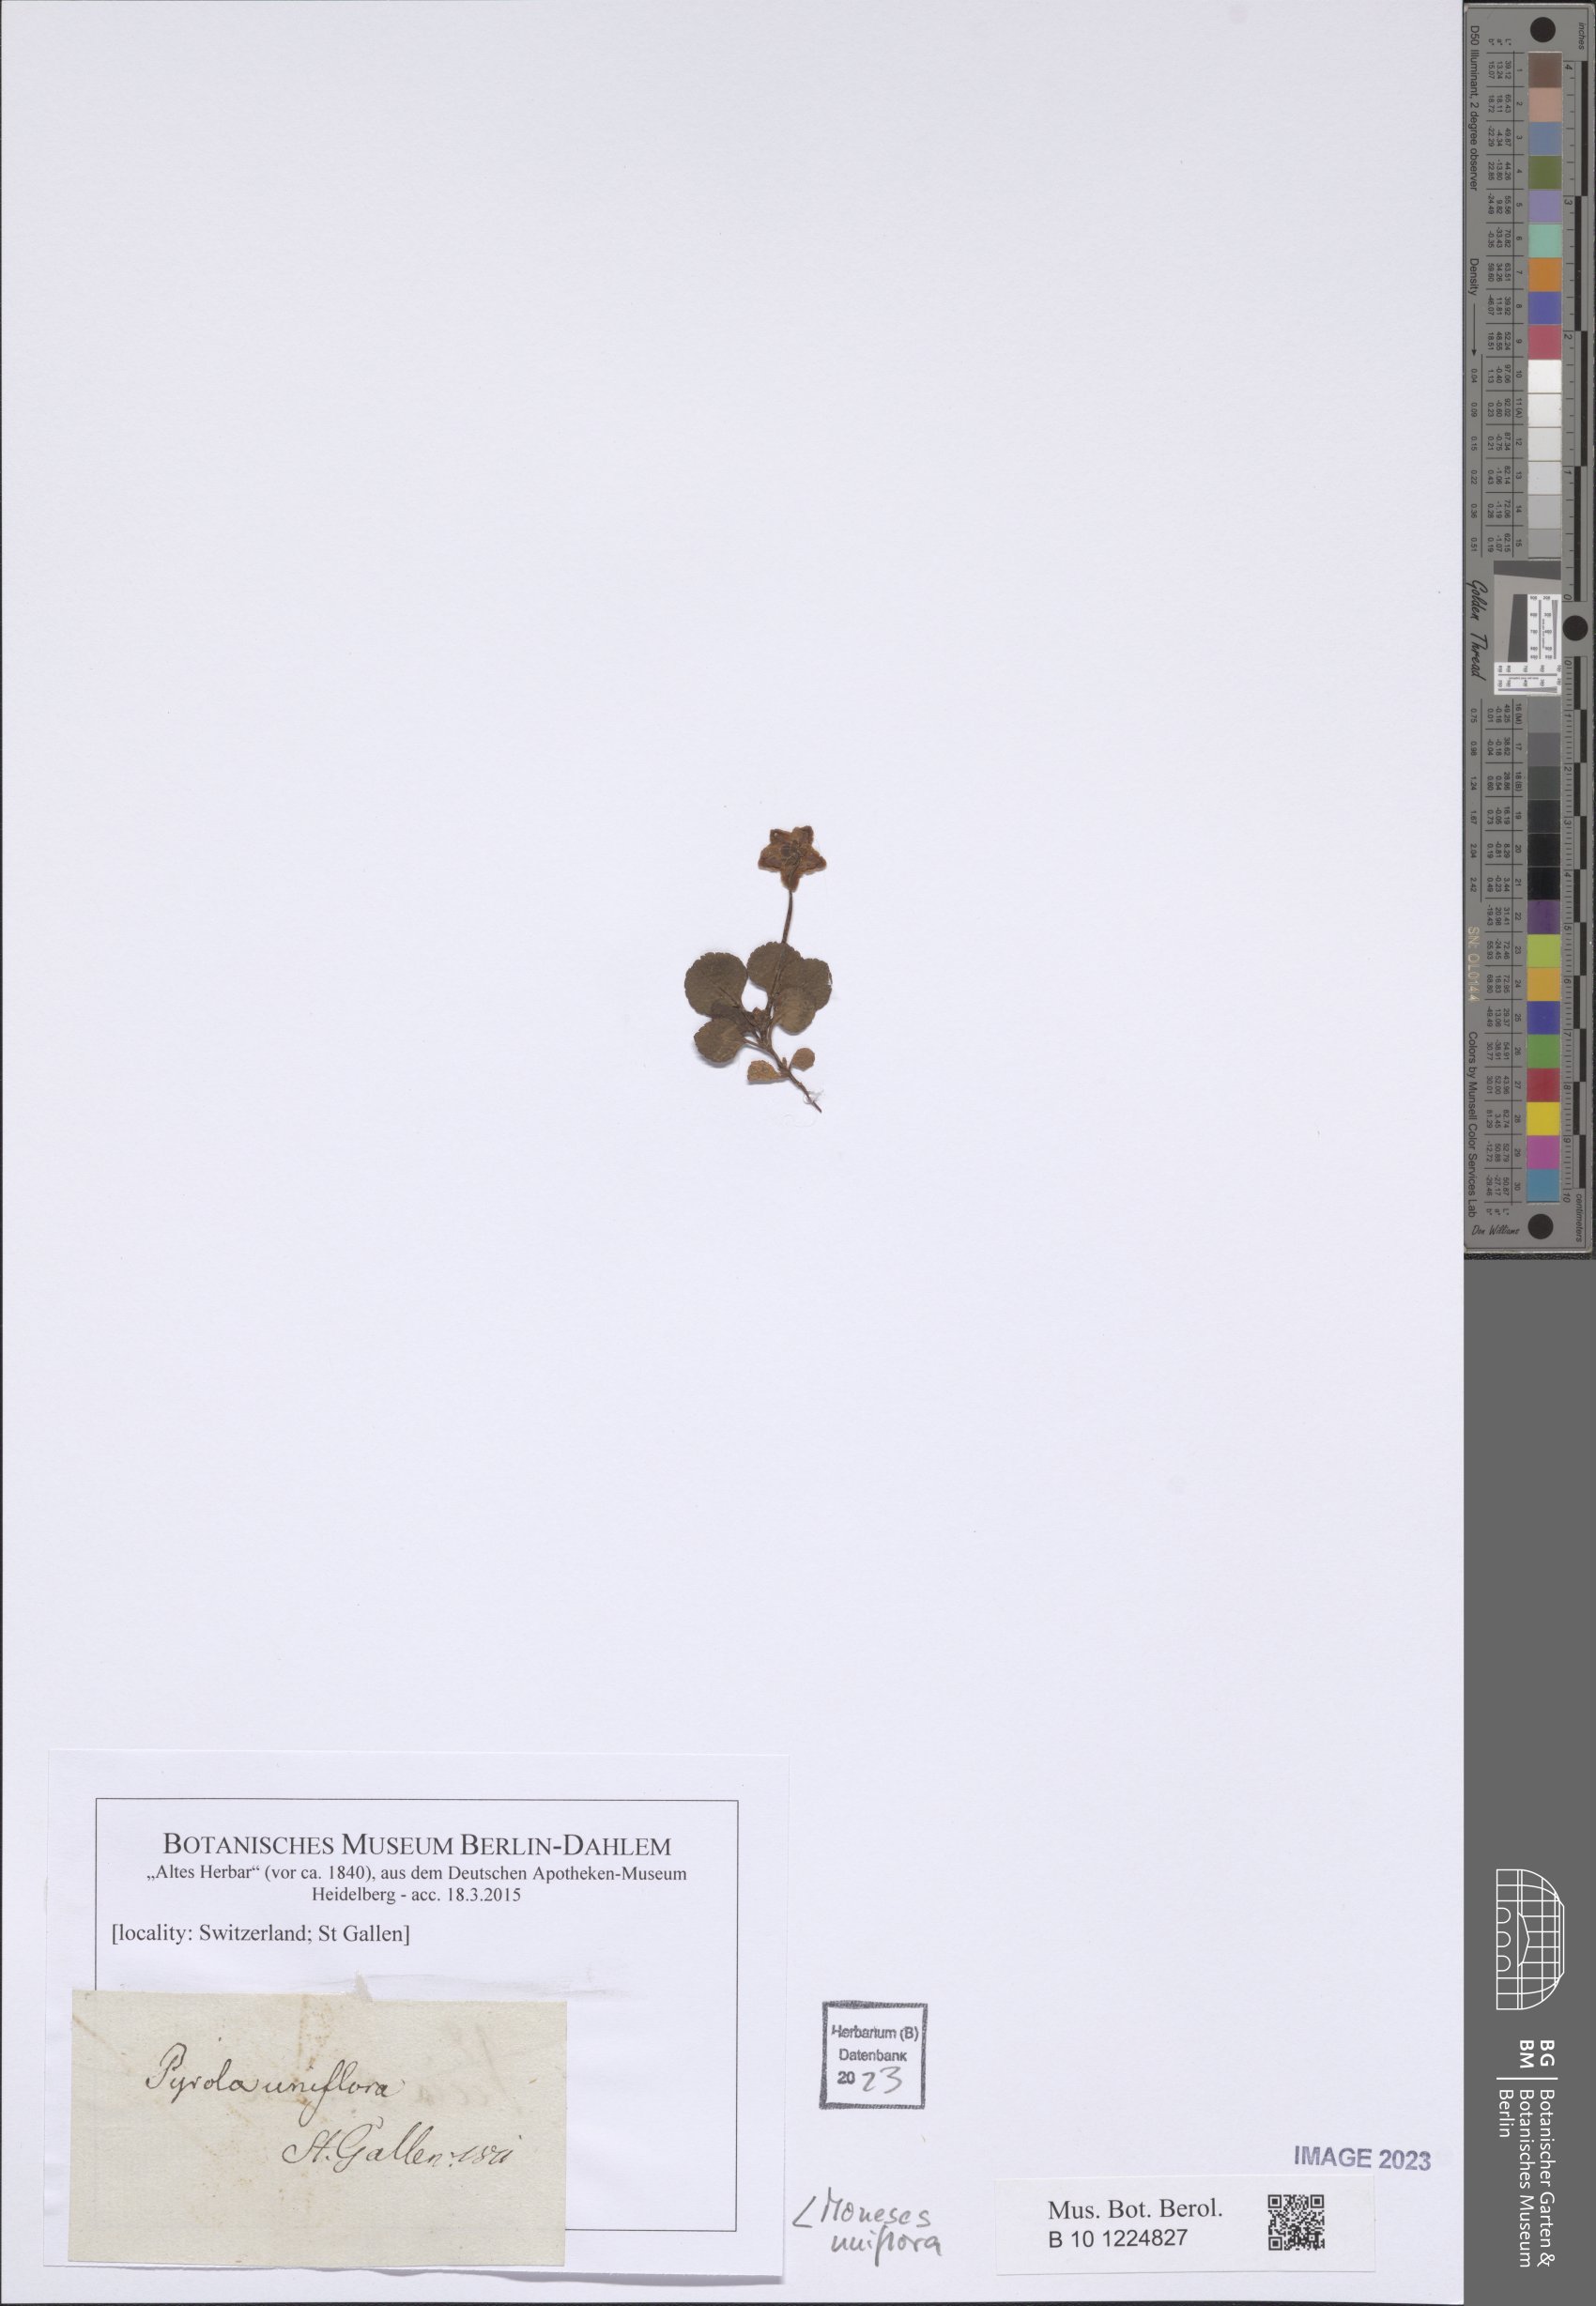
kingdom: Plantae
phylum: Tracheophyta
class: Magnoliopsida
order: Ericales
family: Ericaceae
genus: Moneses
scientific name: Moneses uniflora
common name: One-flowered wintergreen
